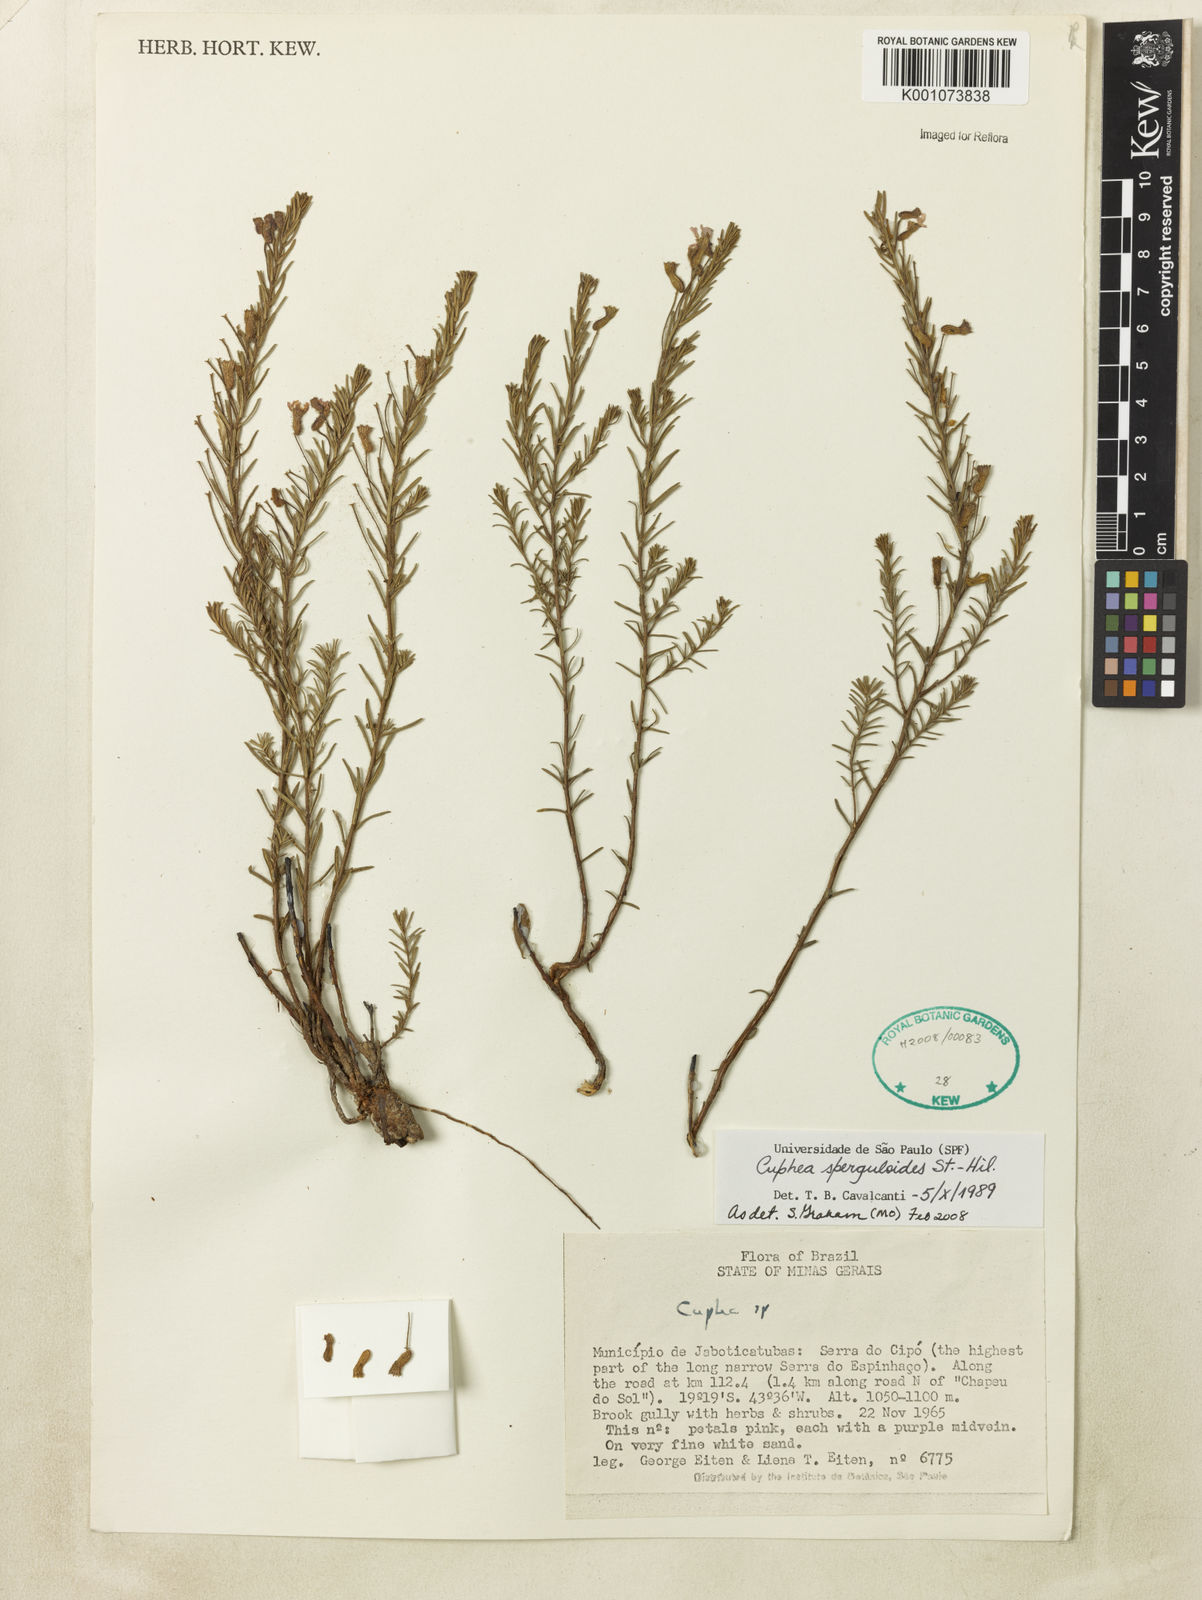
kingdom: Plantae
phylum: Tracheophyta
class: Magnoliopsida
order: Myrtales
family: Lythraceae
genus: Cuphea
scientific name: Cuphea sperguloides
